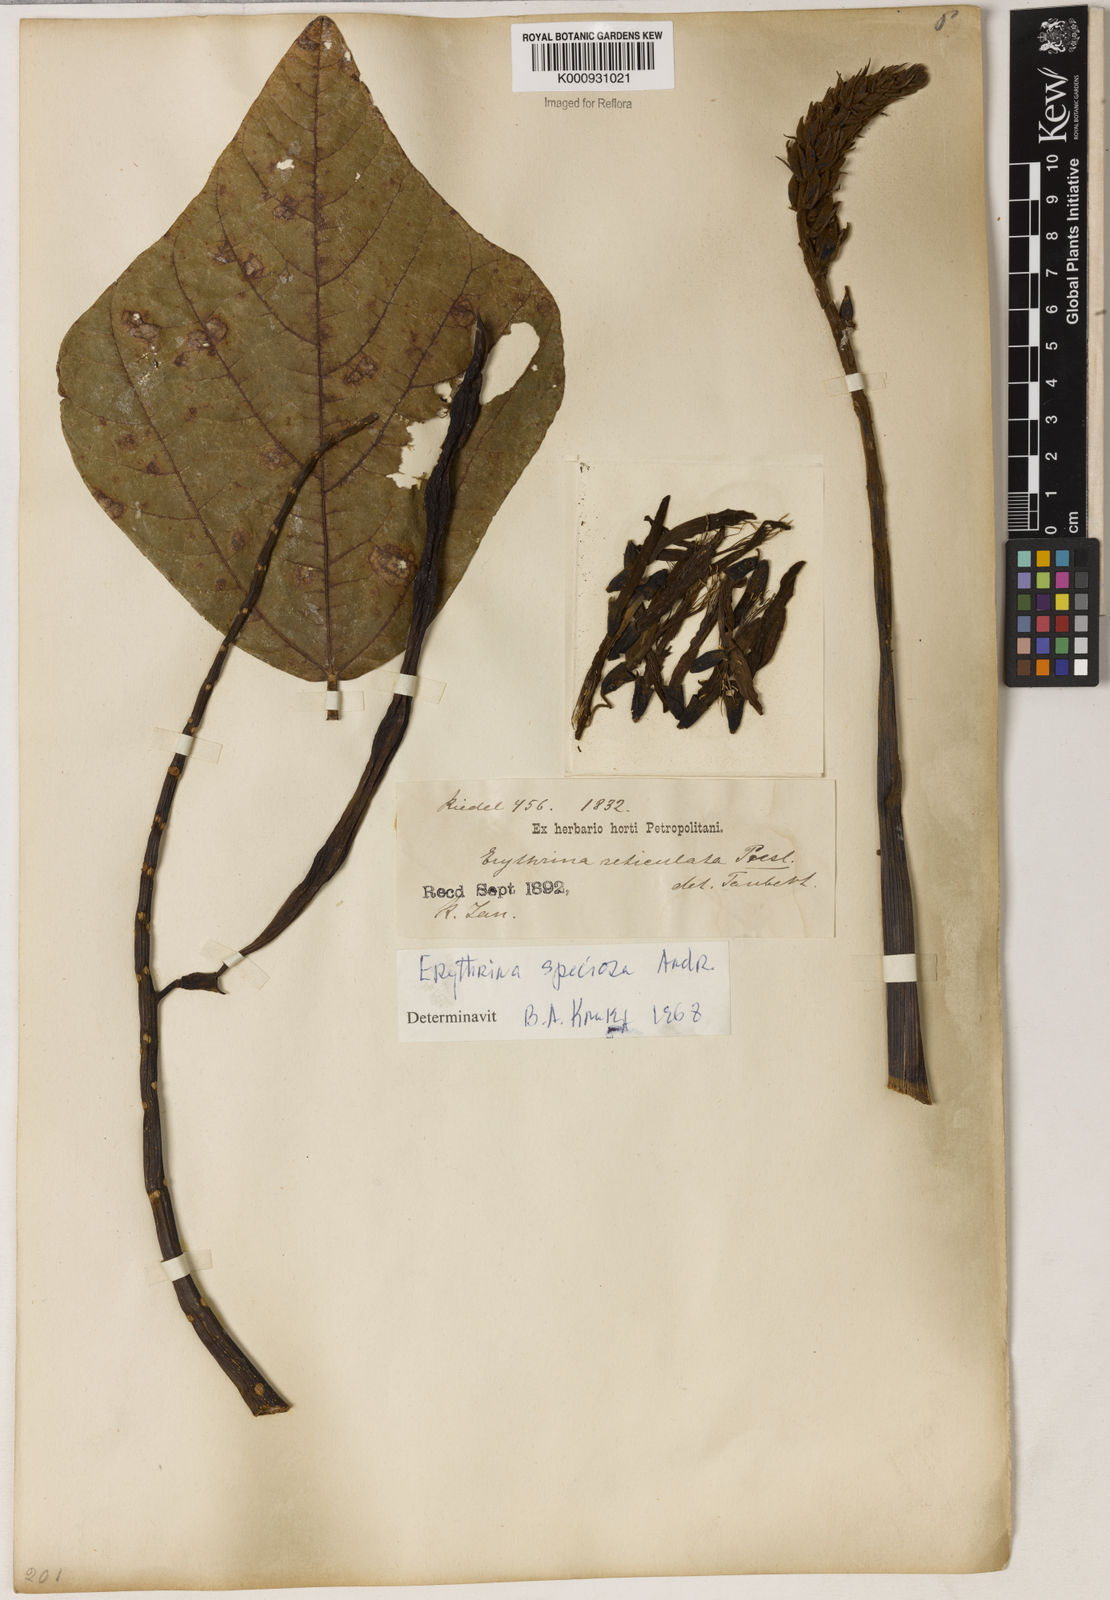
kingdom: Plantae
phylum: Tracheophyta
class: Magnoliopsida
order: Fabales
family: Fabaceae
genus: Erythrina
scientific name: Erythrina speciosa
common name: Coral tree
